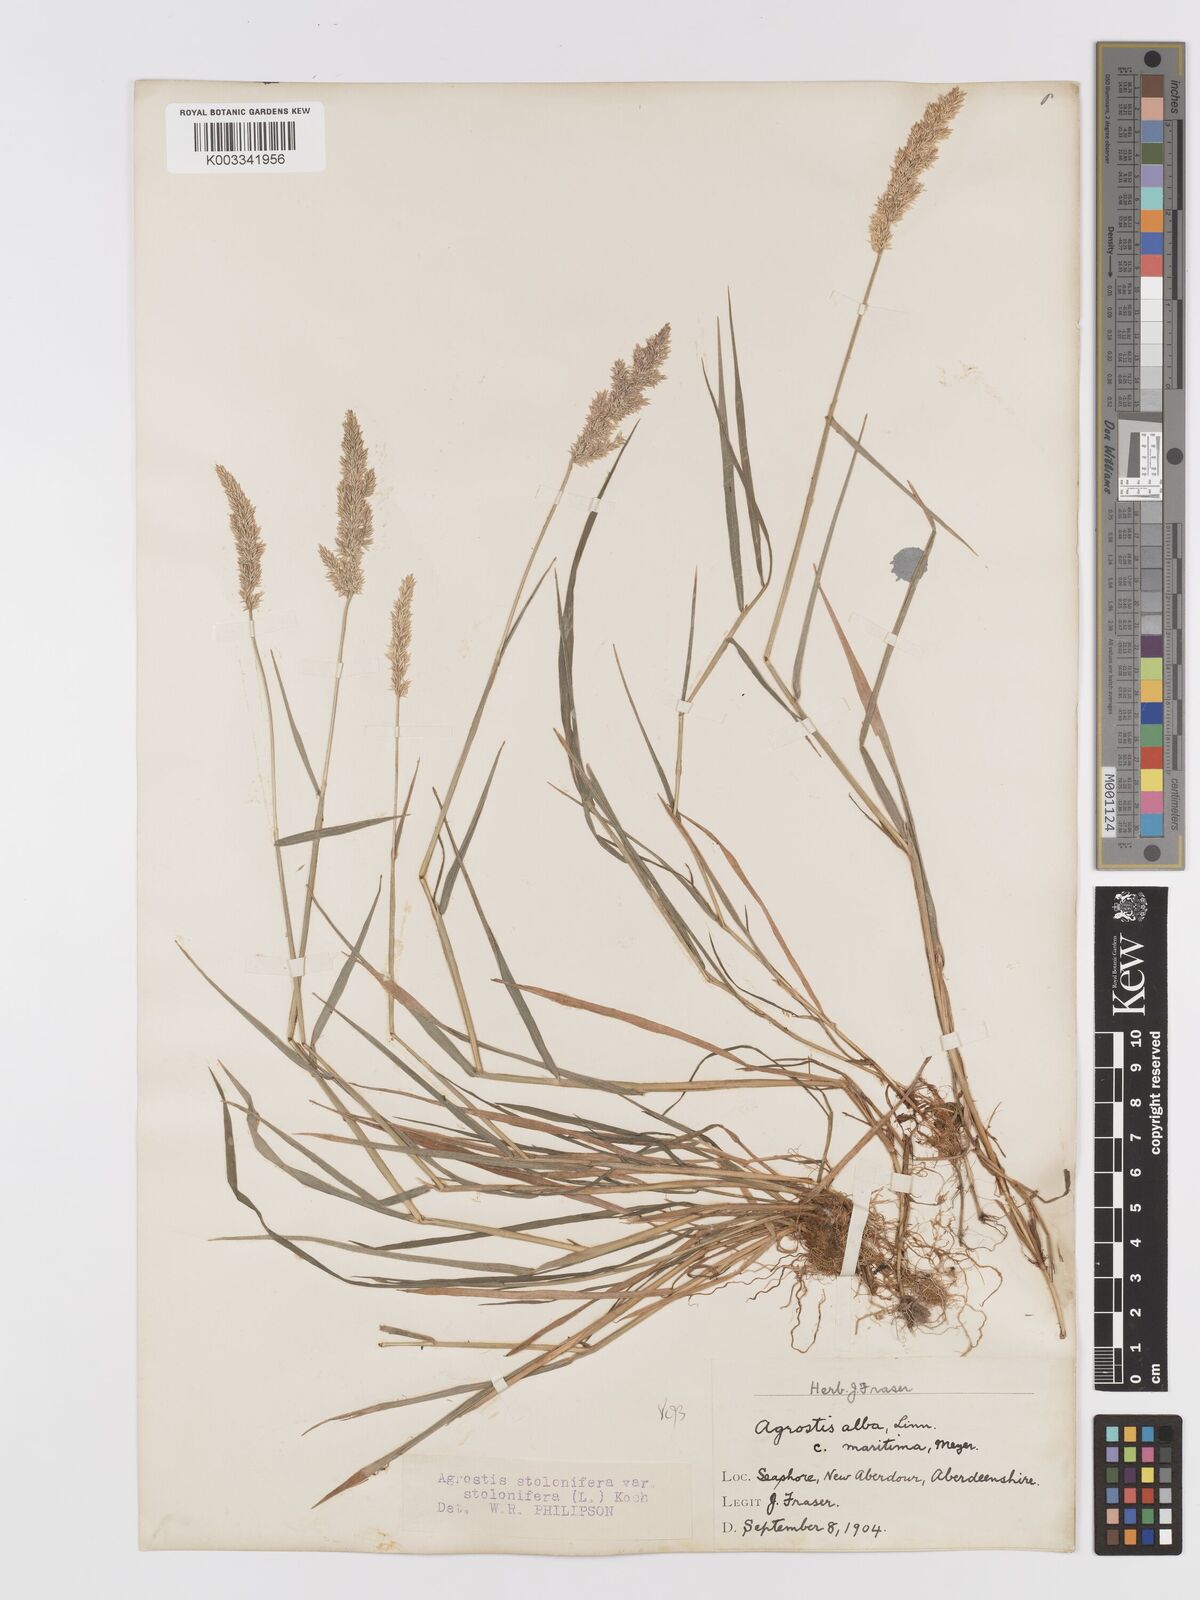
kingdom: Plantae
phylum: Tracheophyta
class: Liliopsida
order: Poales
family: Poaceae
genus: Agrostis
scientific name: Agrostis stolonifera
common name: Creeping bentgrass
